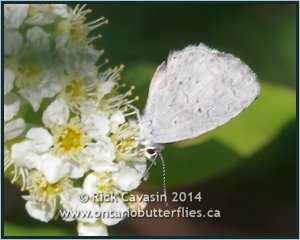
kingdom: Animalia
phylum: Arthropoda
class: Insecta
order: Lepidoptera
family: Lycaenidae
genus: Celastrina
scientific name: Celastrina
